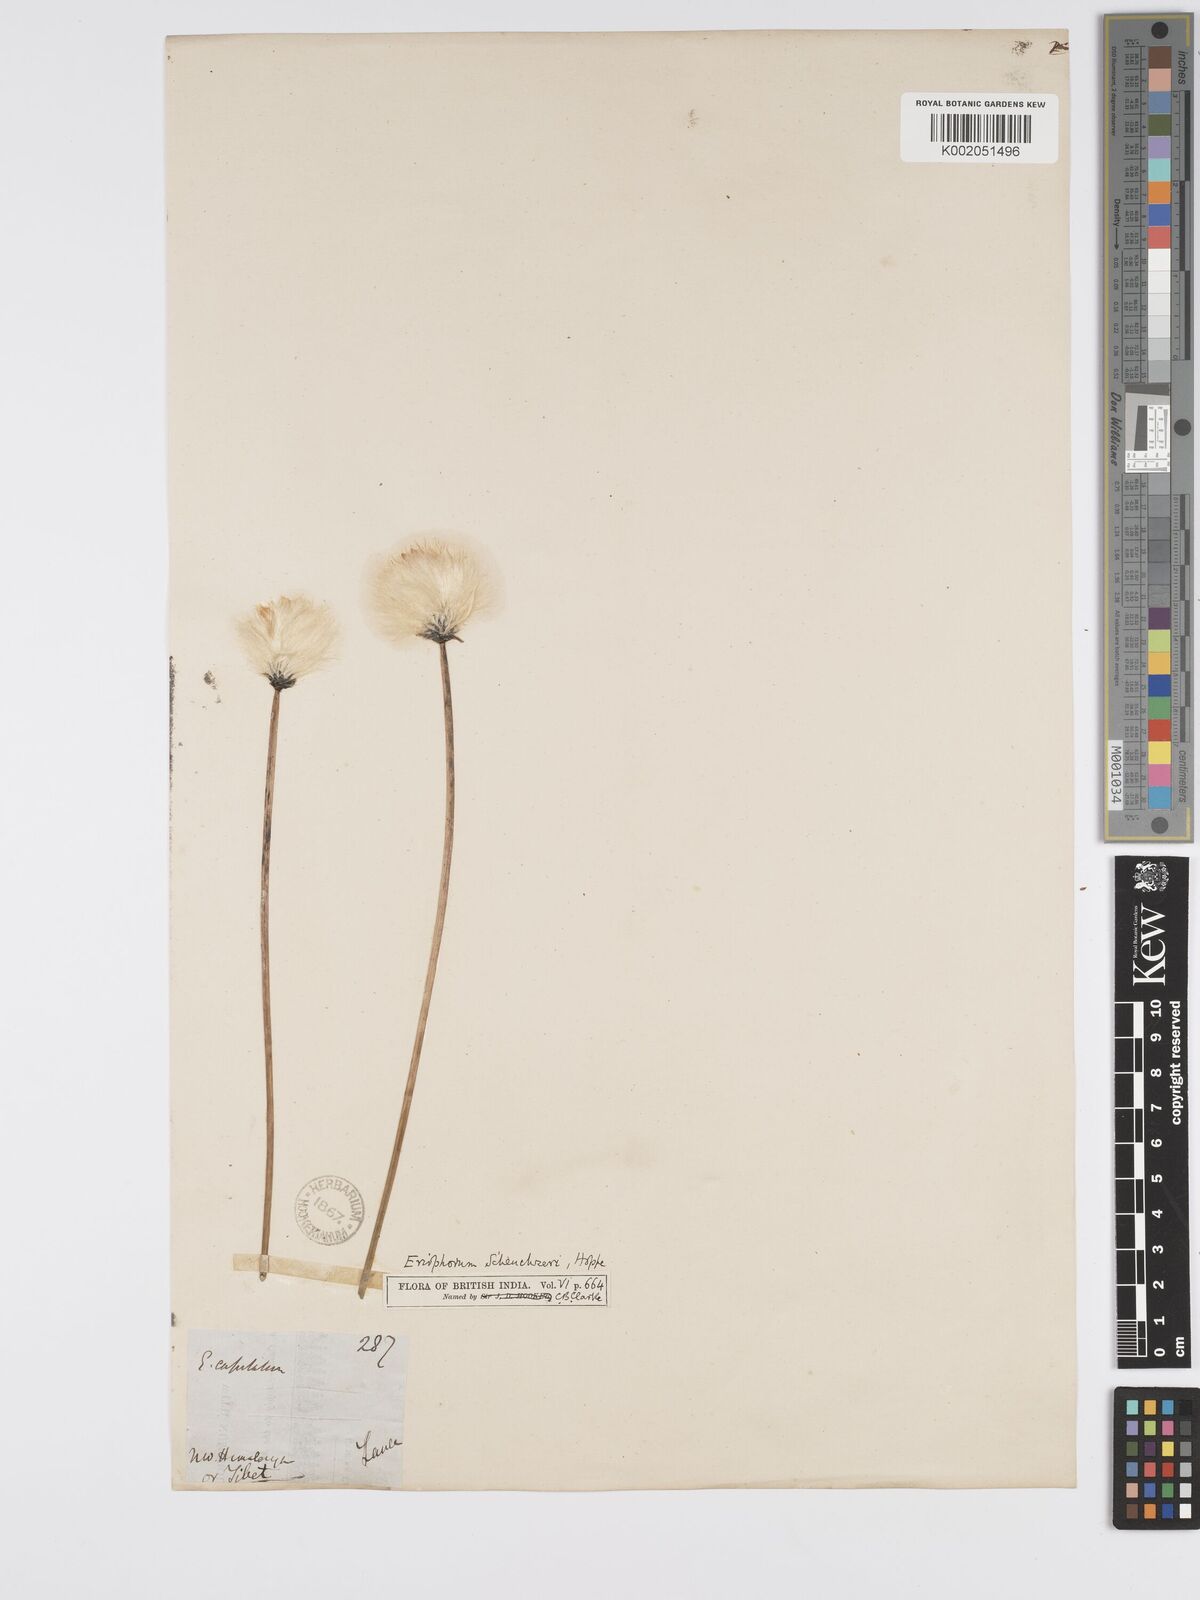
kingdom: Plantae
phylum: Tracheophyta
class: Liliopsida
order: Poales
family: Cyperaceae
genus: Eriophorum
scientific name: Eriophorum scheuchzeri
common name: Scheuchzer's cottongrass
